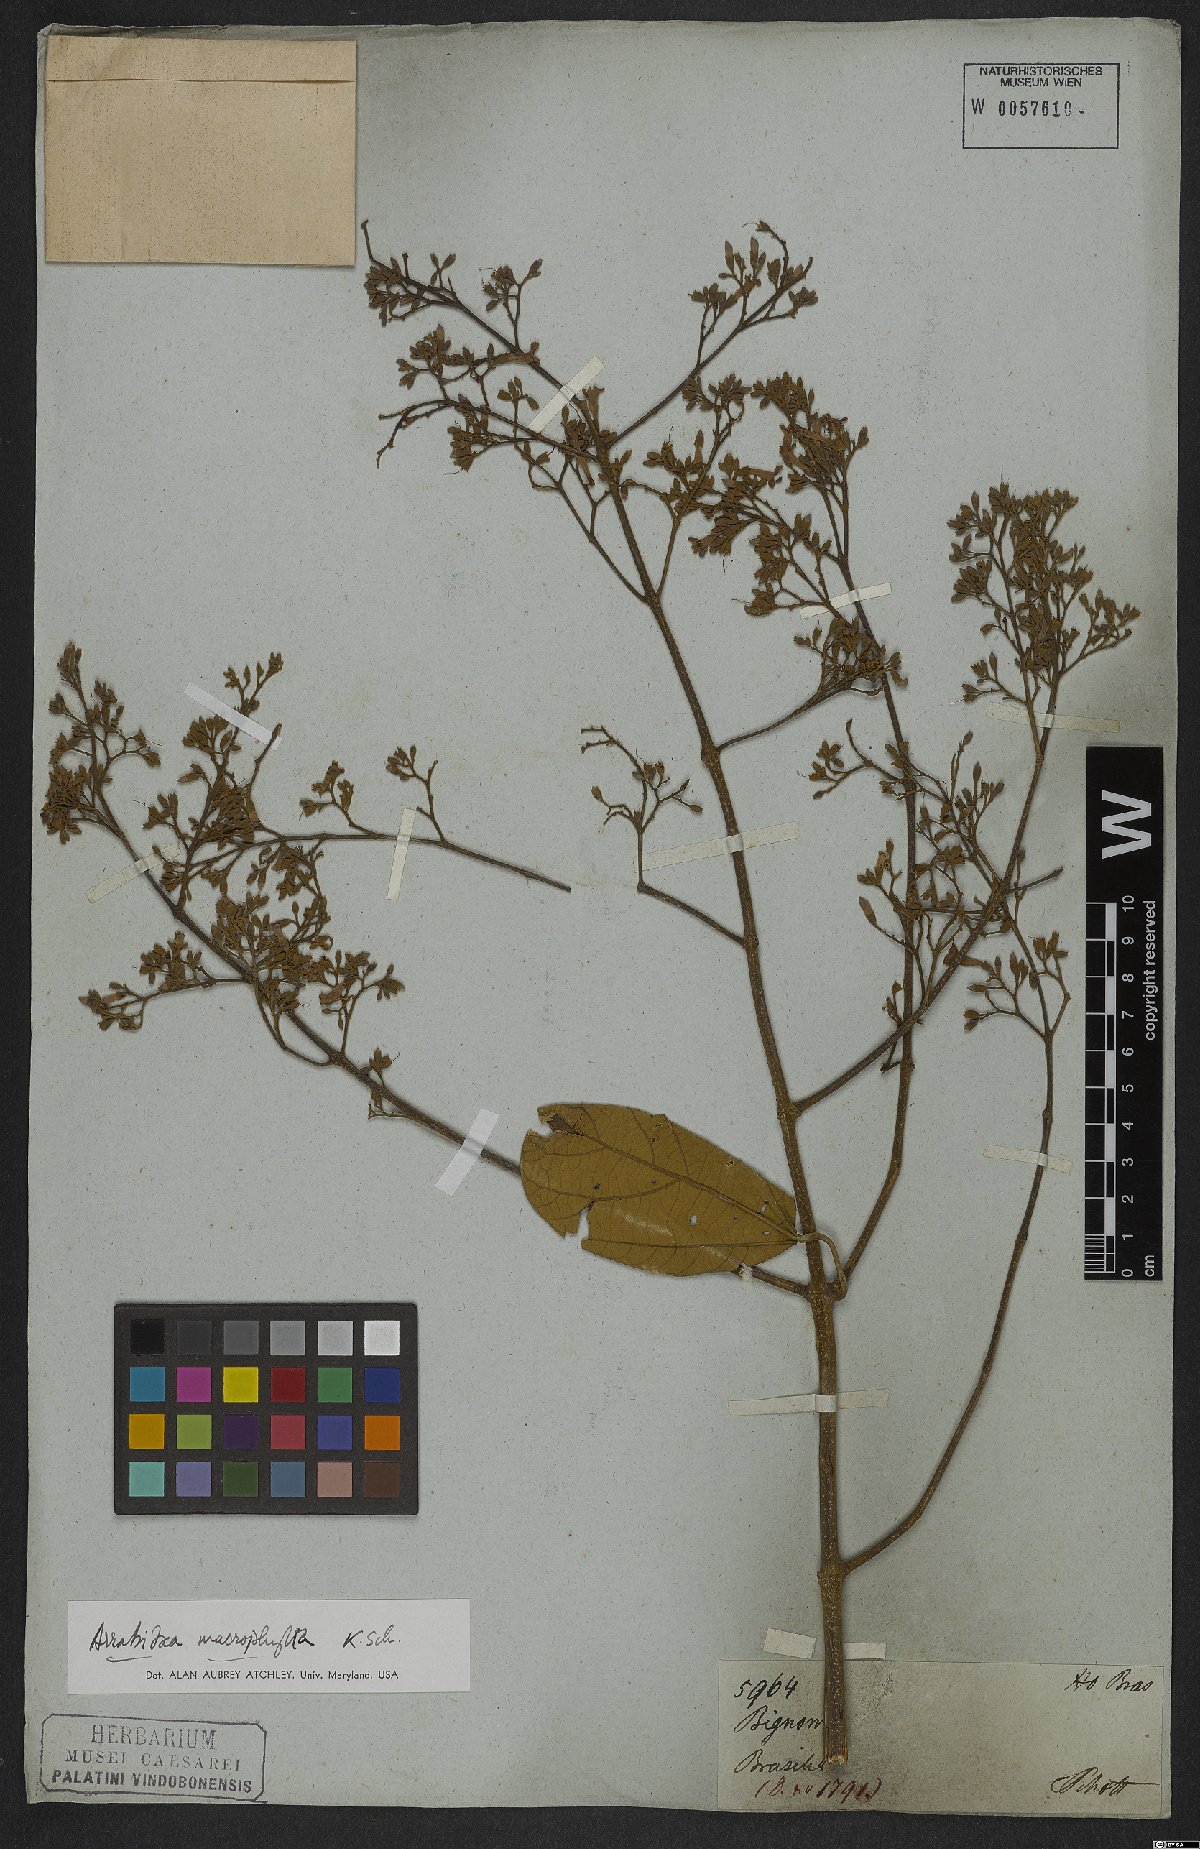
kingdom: Plantae
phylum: Tracheophyta
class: Magnoliopsida
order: Lamiales
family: Bignoniaceae
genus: Xylophragma
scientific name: Xylophragma platyphyllum
